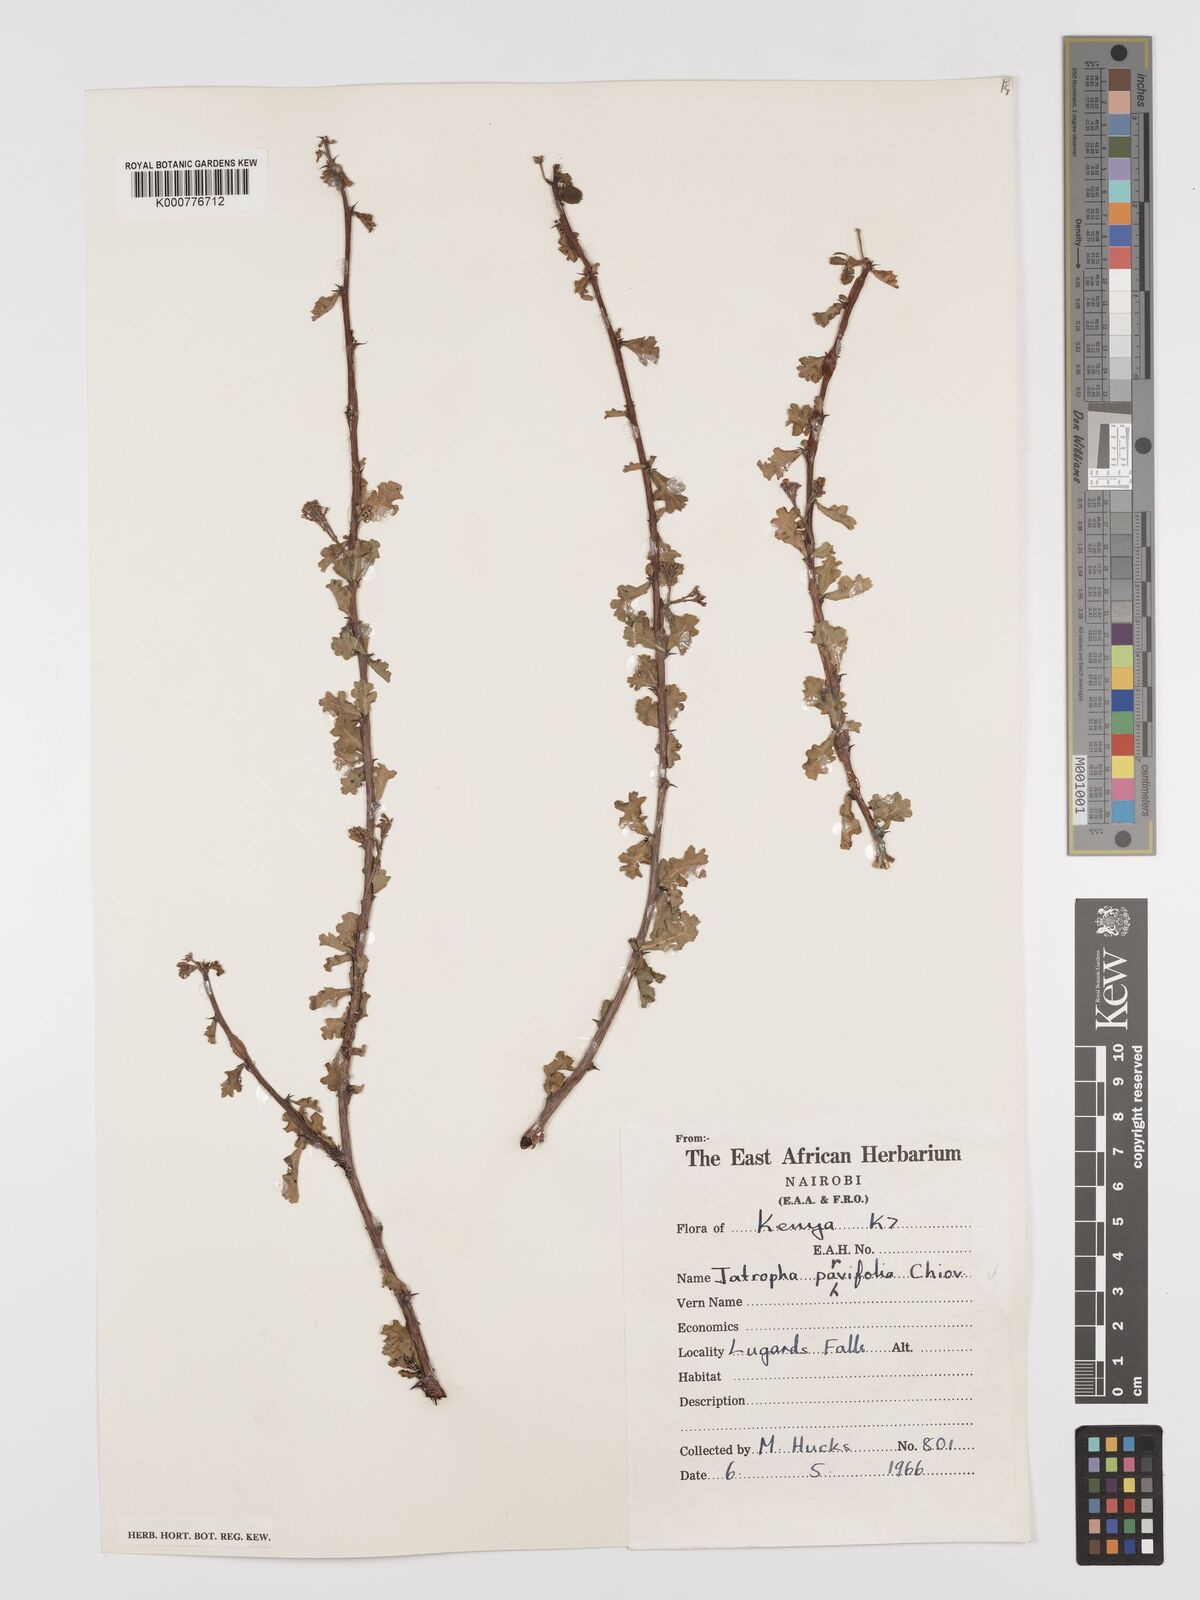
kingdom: Plantae
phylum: Tracheophyta
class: Magnoliopsida
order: Malpighiales
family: Euphorbiaceae
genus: Jatropha
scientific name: Jatropha rivae
